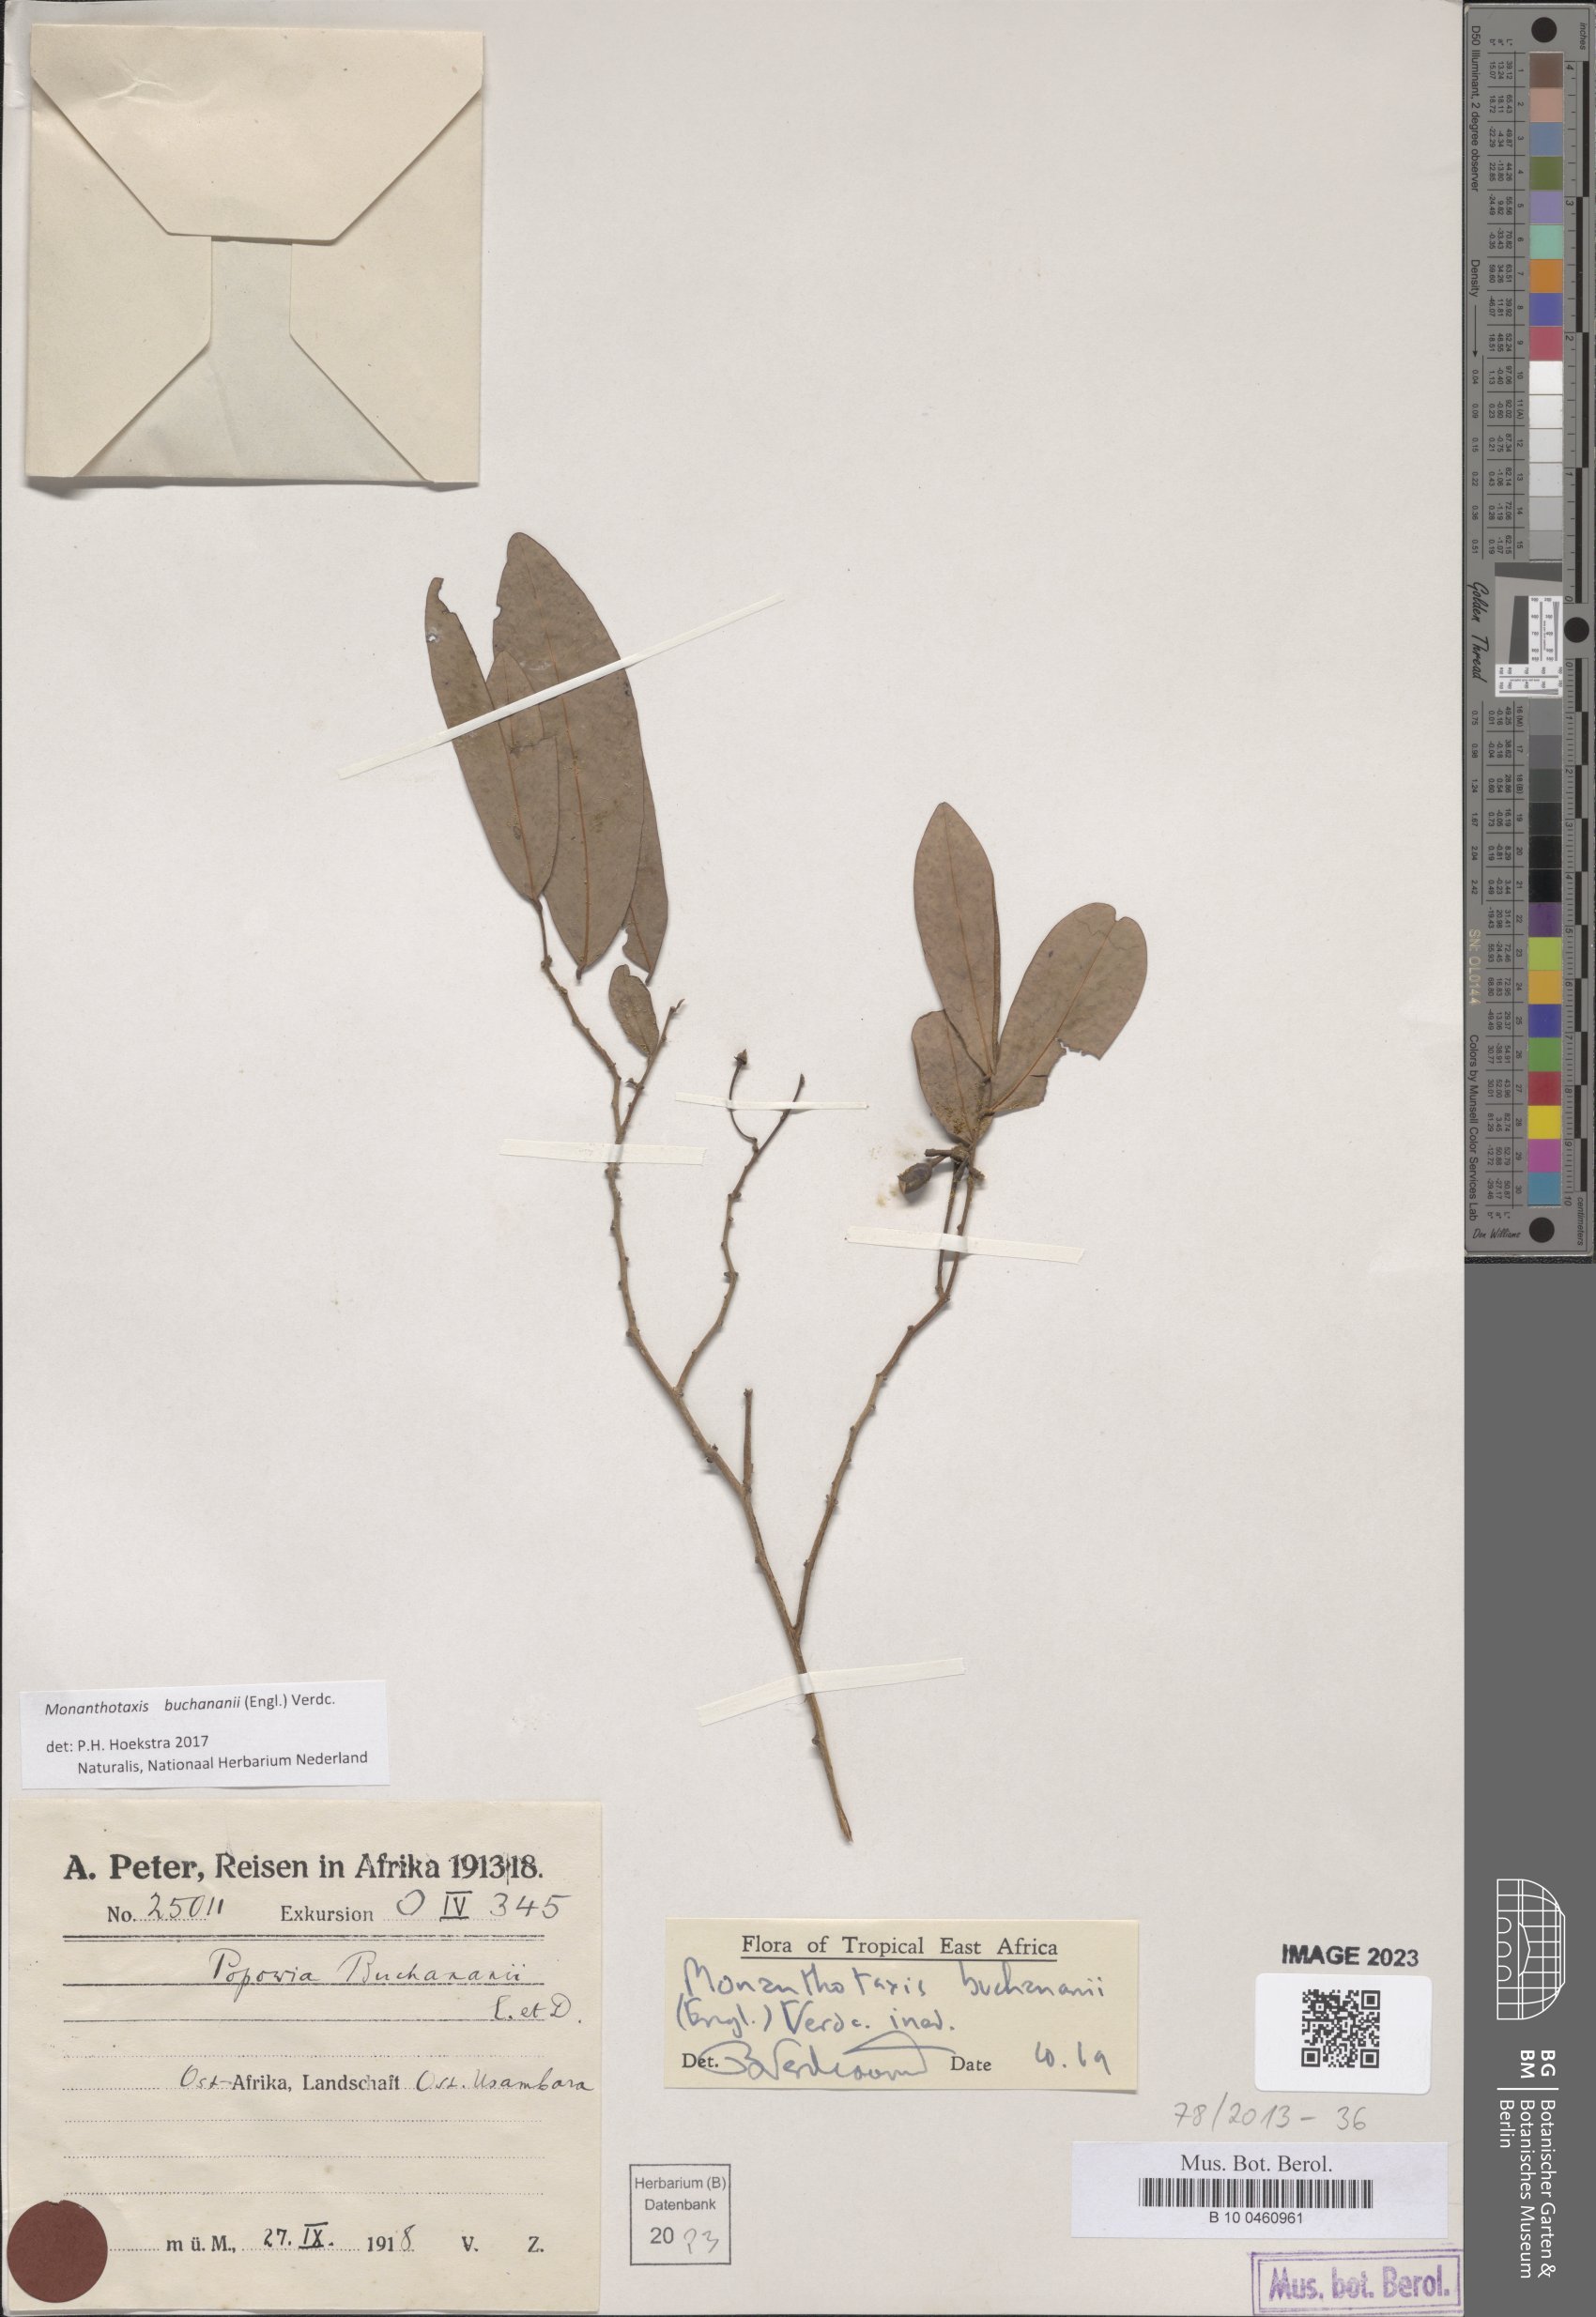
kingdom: Plantae
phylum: Tracheophyta
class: Magnoliopsida
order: Magnoliales
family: Annonaceae
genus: Monanthotaxis
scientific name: Monanthotaxis buchananii
